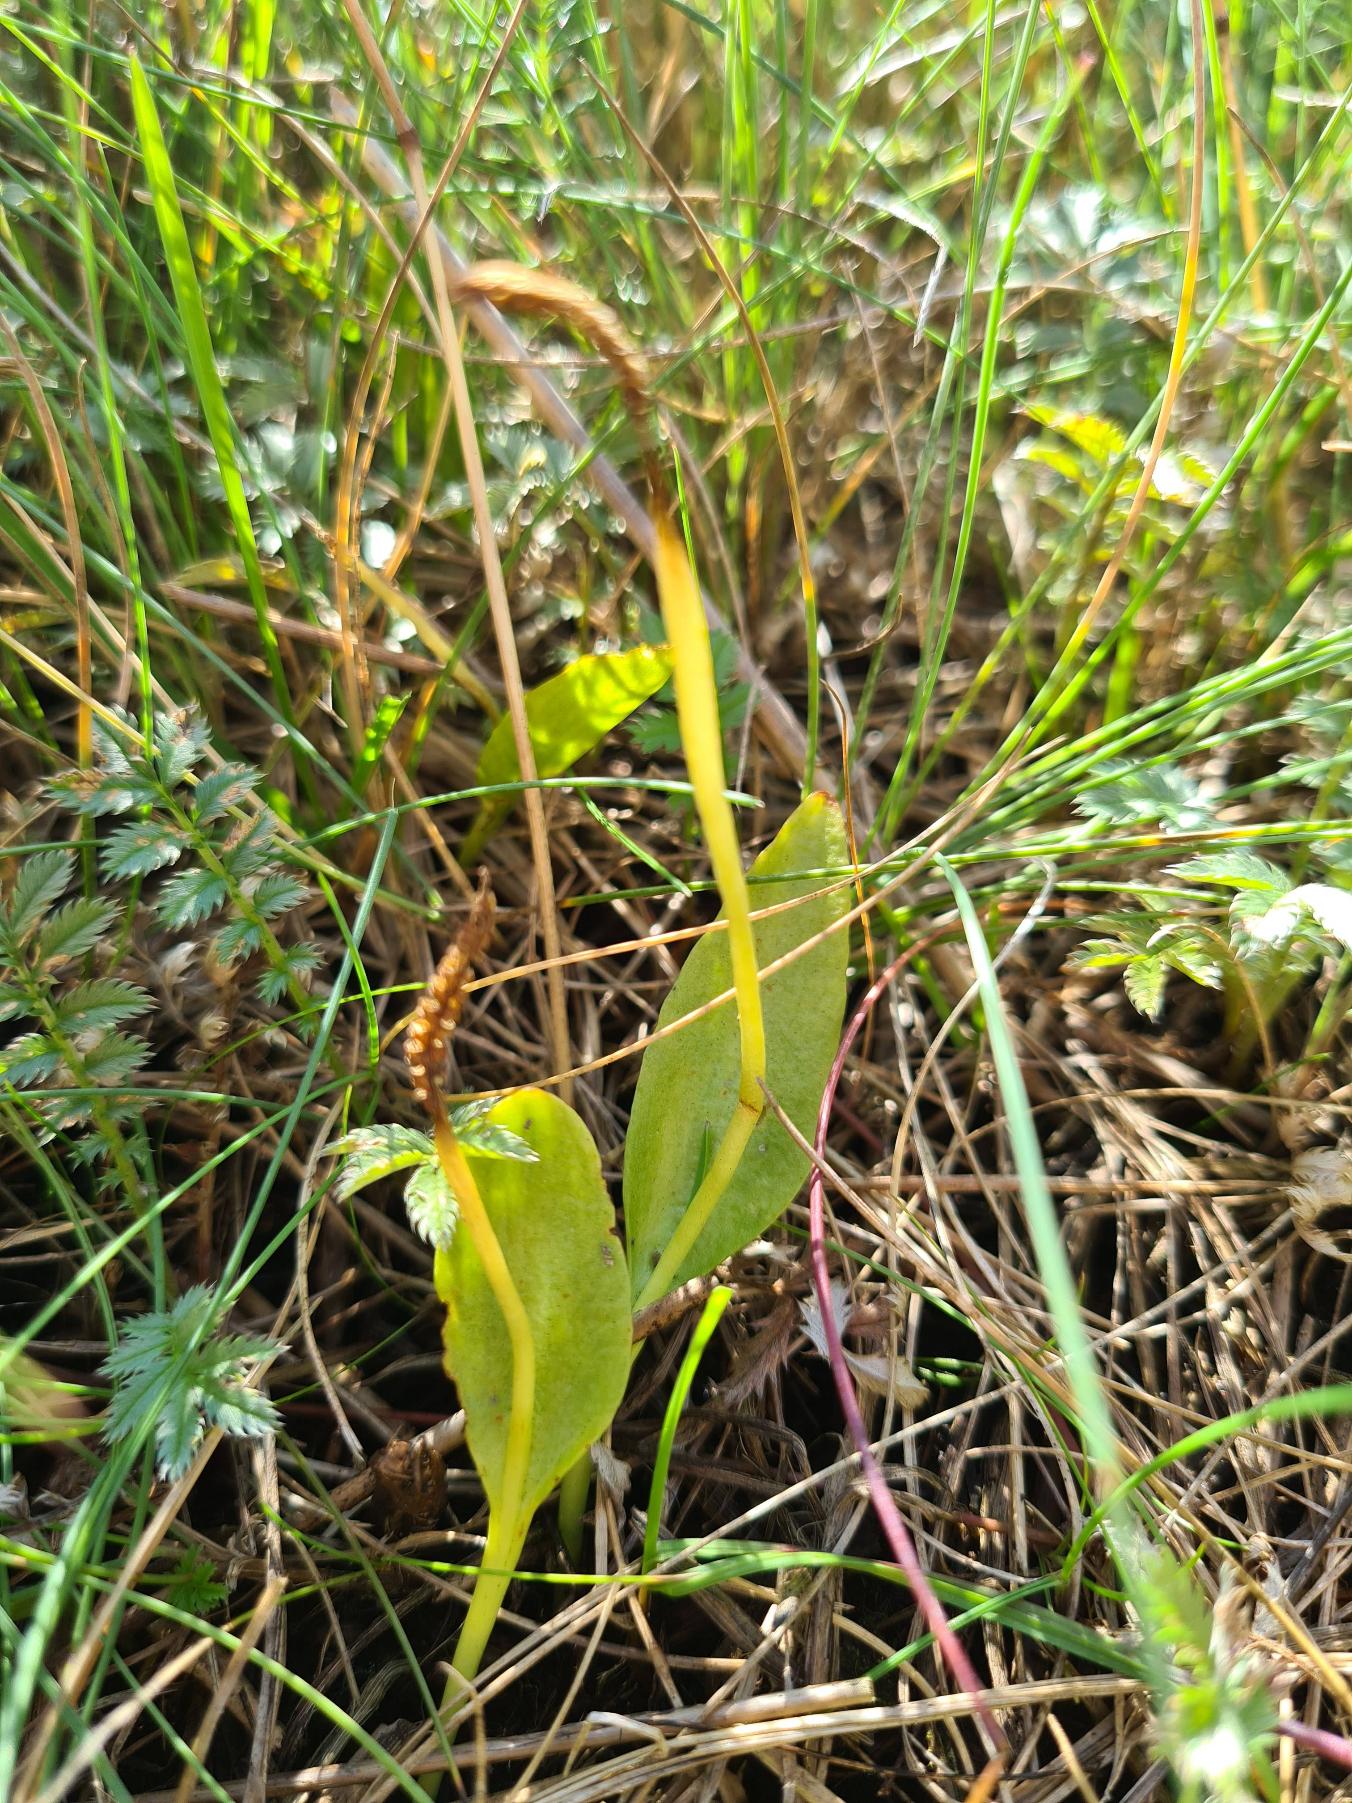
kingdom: Plantae
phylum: Tracheophyta
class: Polypodiopsida
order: Ophioglossales
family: Ophioglossaceae
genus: Ophioglossum
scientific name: Ophioglossum vulgatum
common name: Slangetunge
